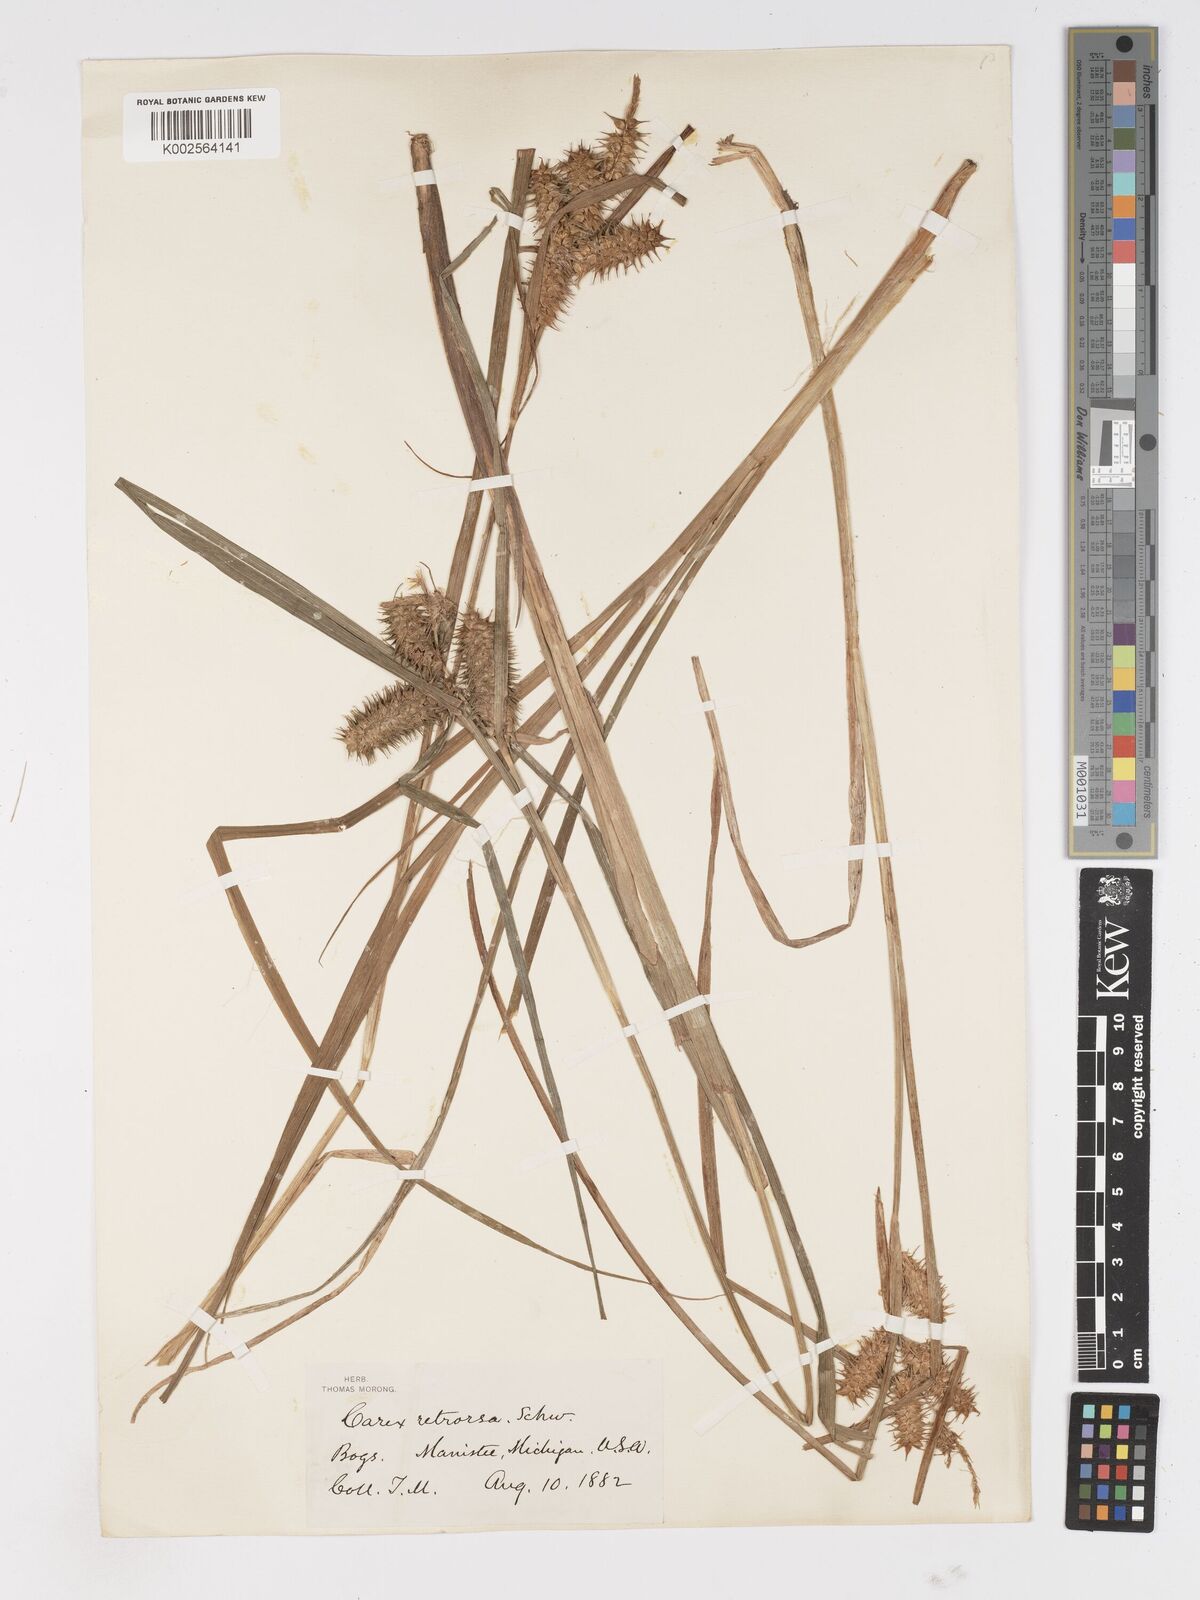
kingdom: Plantae
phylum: Tracheophyta
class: Liliopsida
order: Poales
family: Cyperaceae
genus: Carex
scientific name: Carex retrorsa
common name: Knot-sheath sedge
